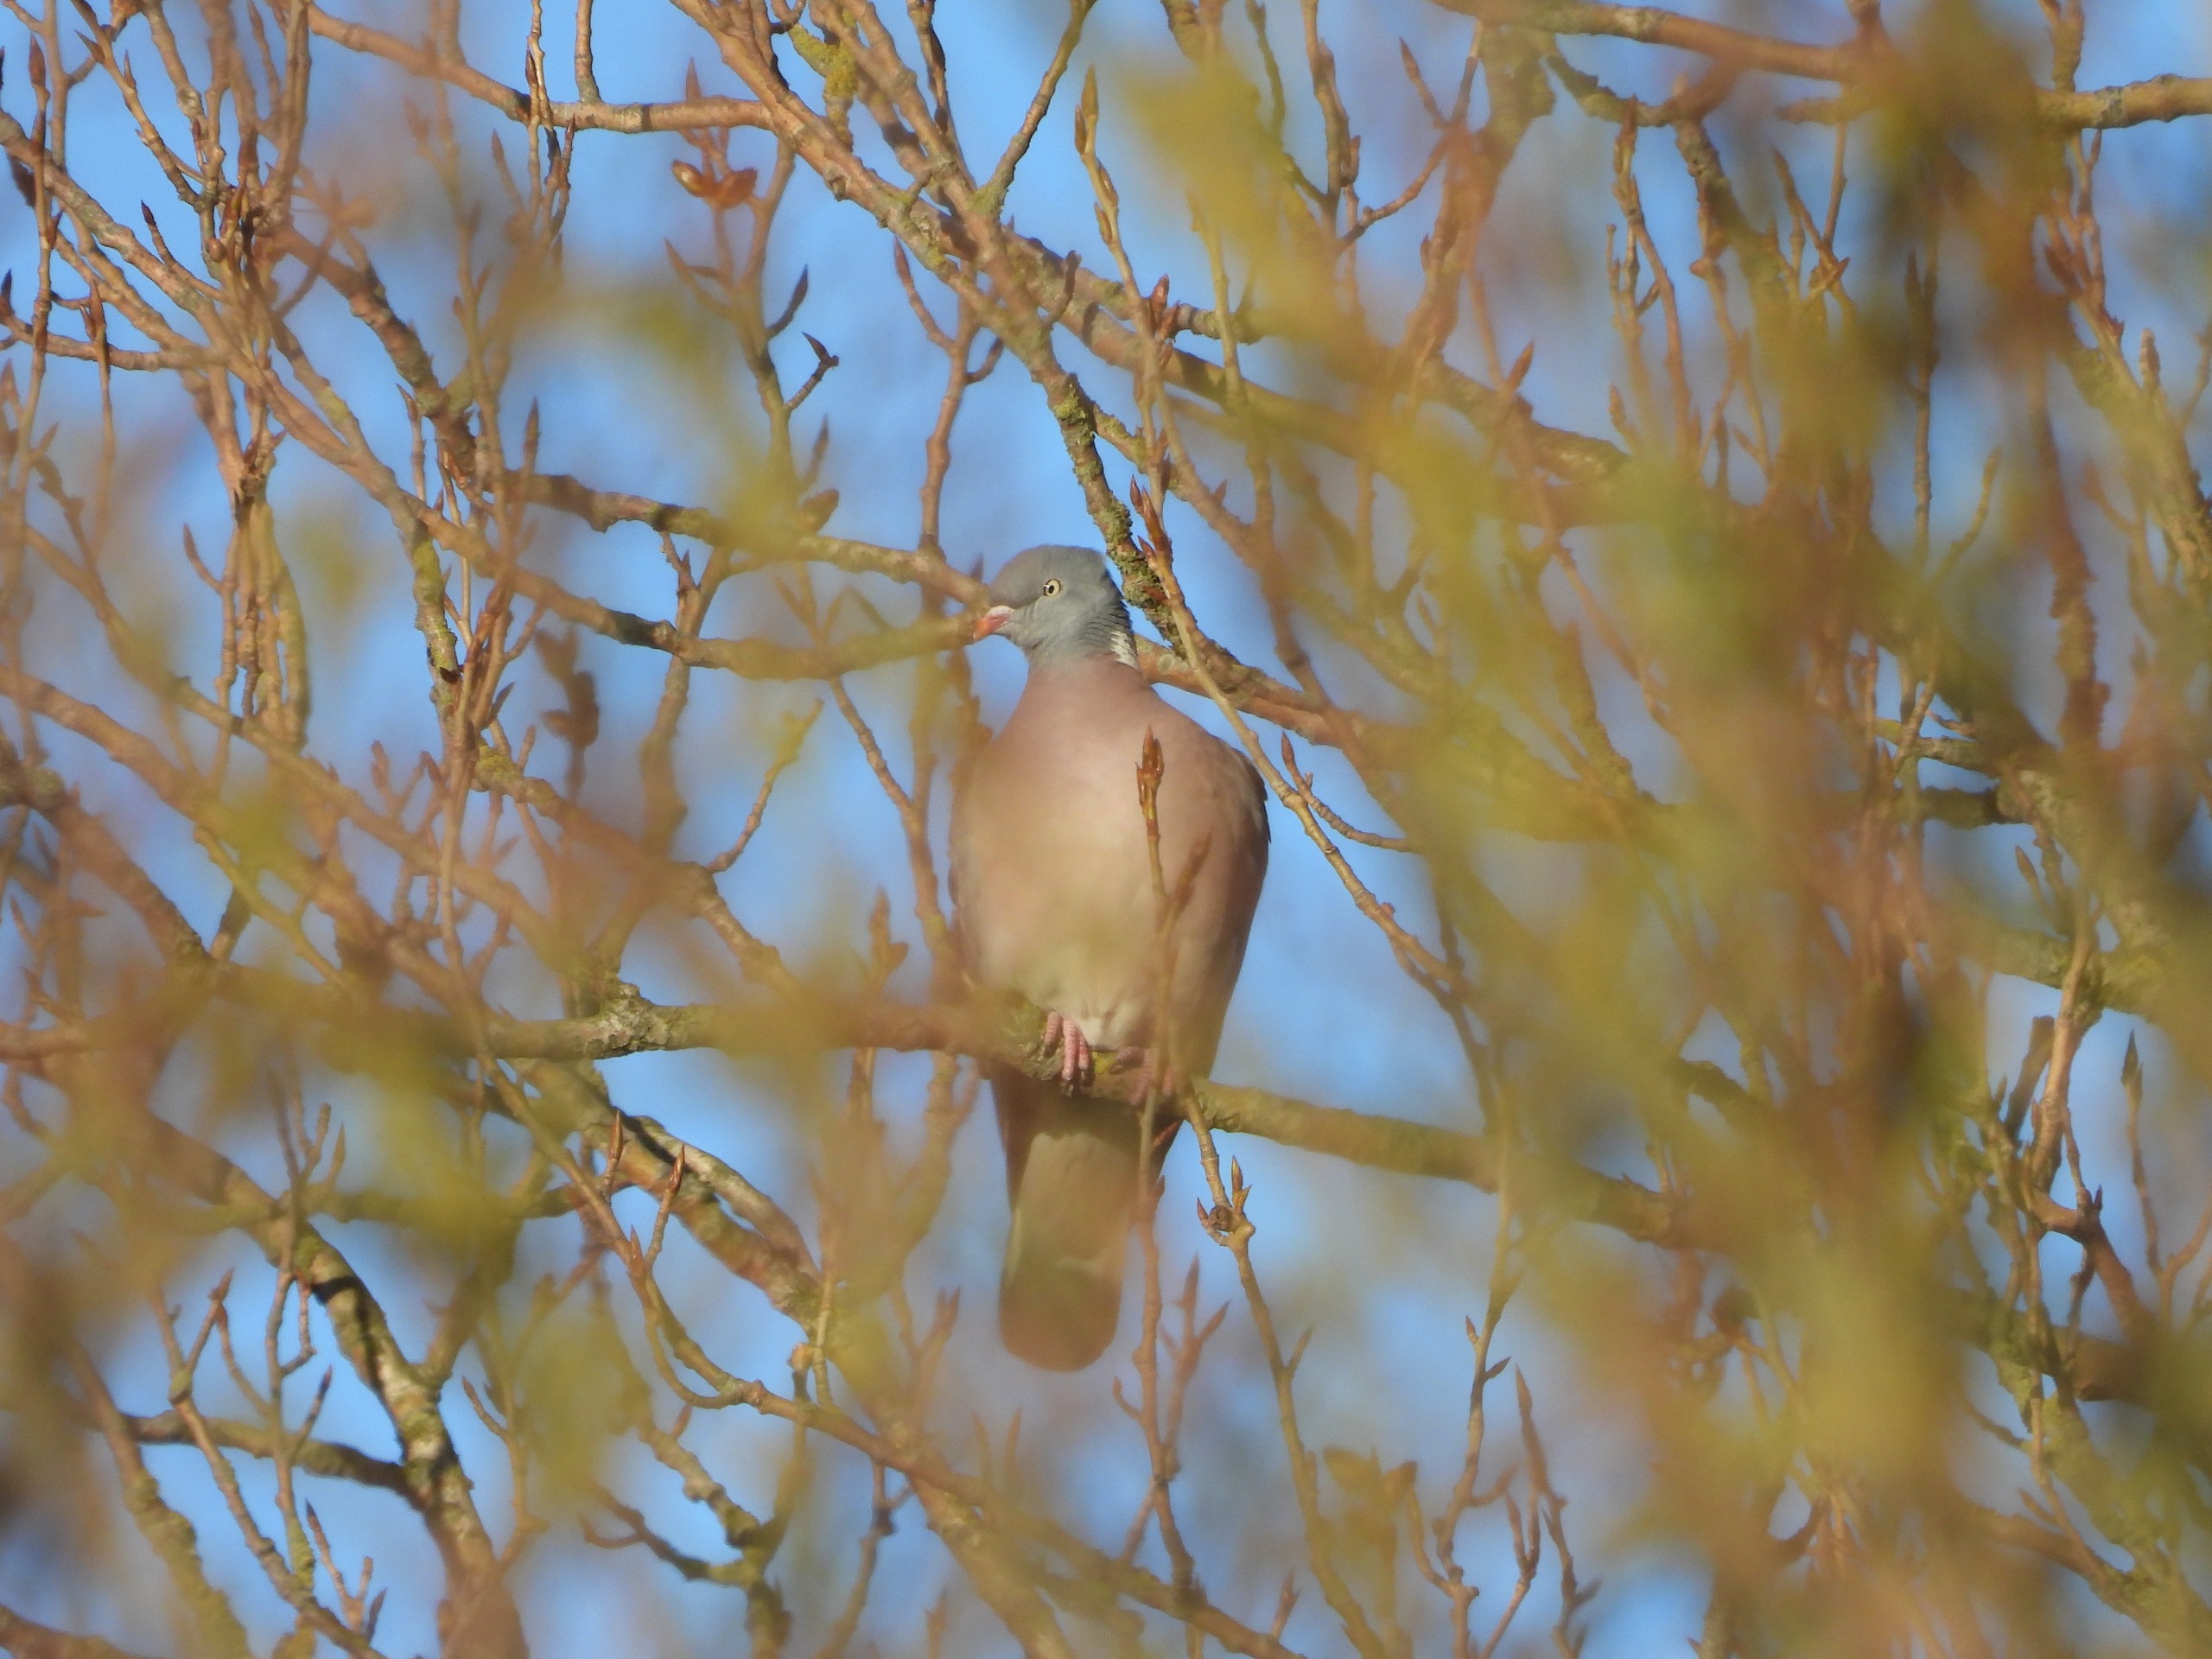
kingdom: Animalia
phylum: Chordata
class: Aves
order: Columbiformes
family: Columbidae
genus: Columba
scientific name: Columba palumbus
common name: Ringdue
